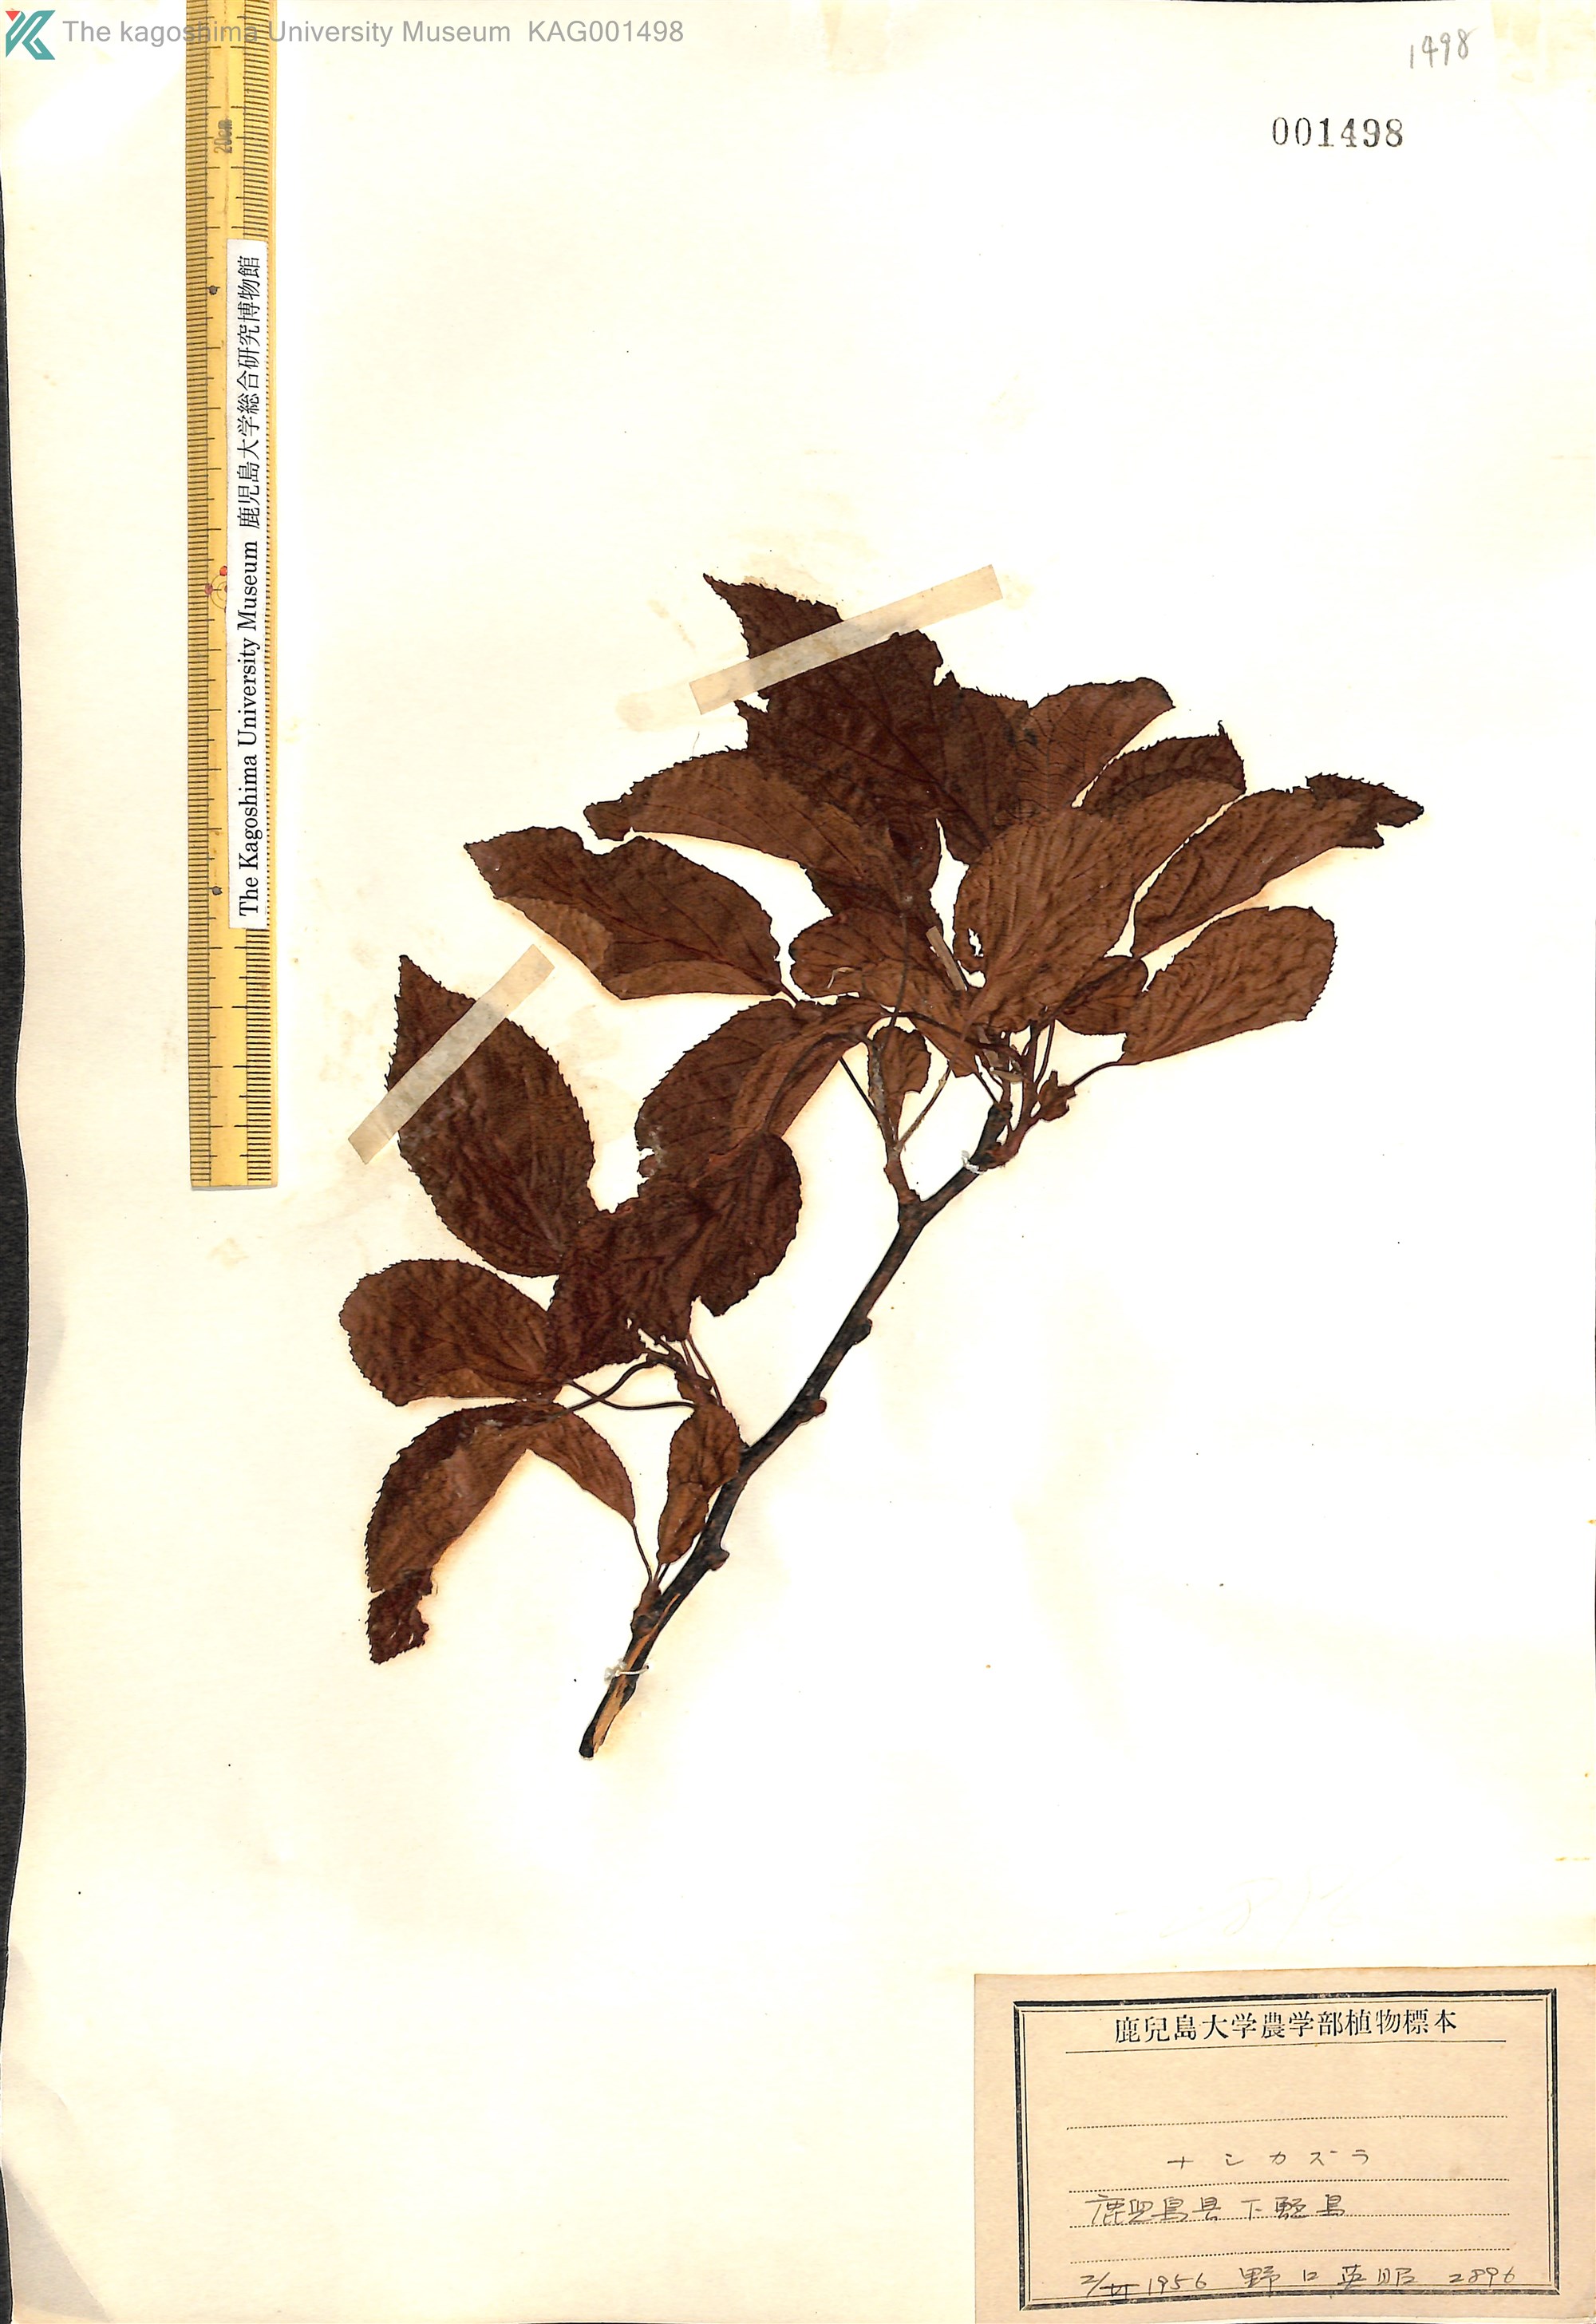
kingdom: Plantae
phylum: Tracheophyta
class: Magnoliopsida
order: Ericales
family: Actinidiaceae
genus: Actinidia
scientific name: Actinidia
